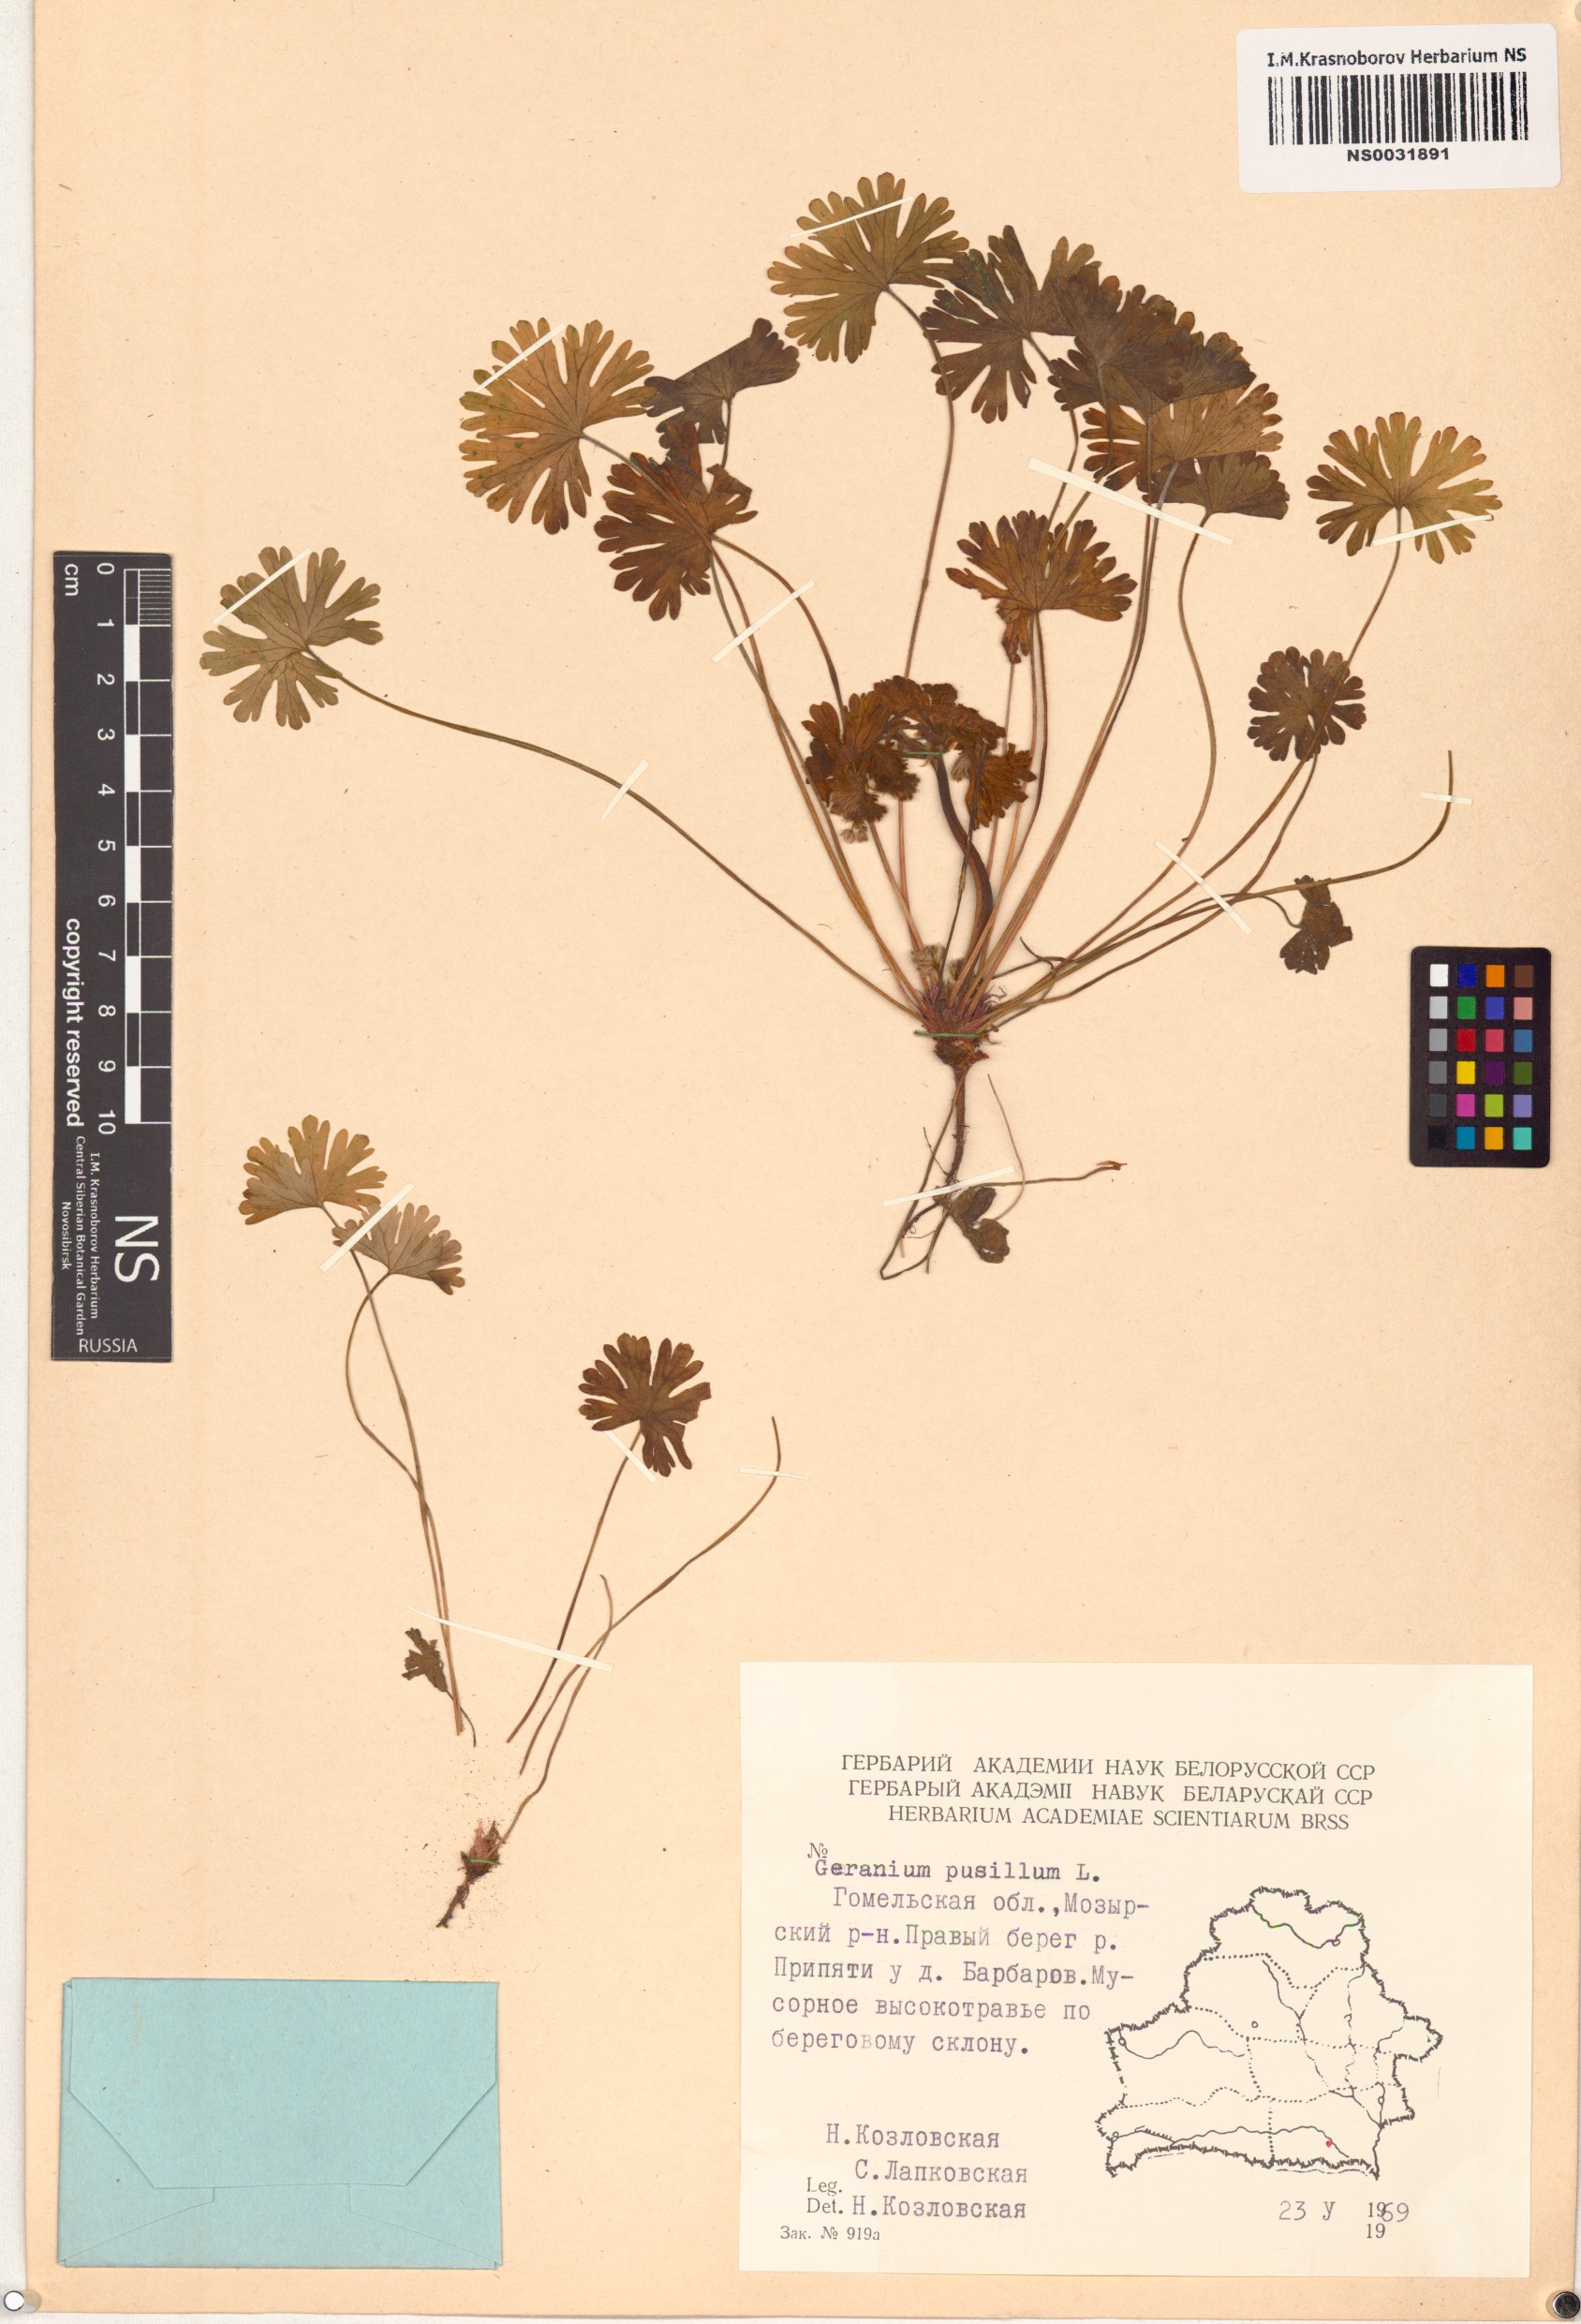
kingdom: Plantae
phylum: Tracheophyta
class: Magnoliopsida
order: Geraniales
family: Geraniaceae
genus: Geranium
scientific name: Geranium pusillum
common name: Small geranium
